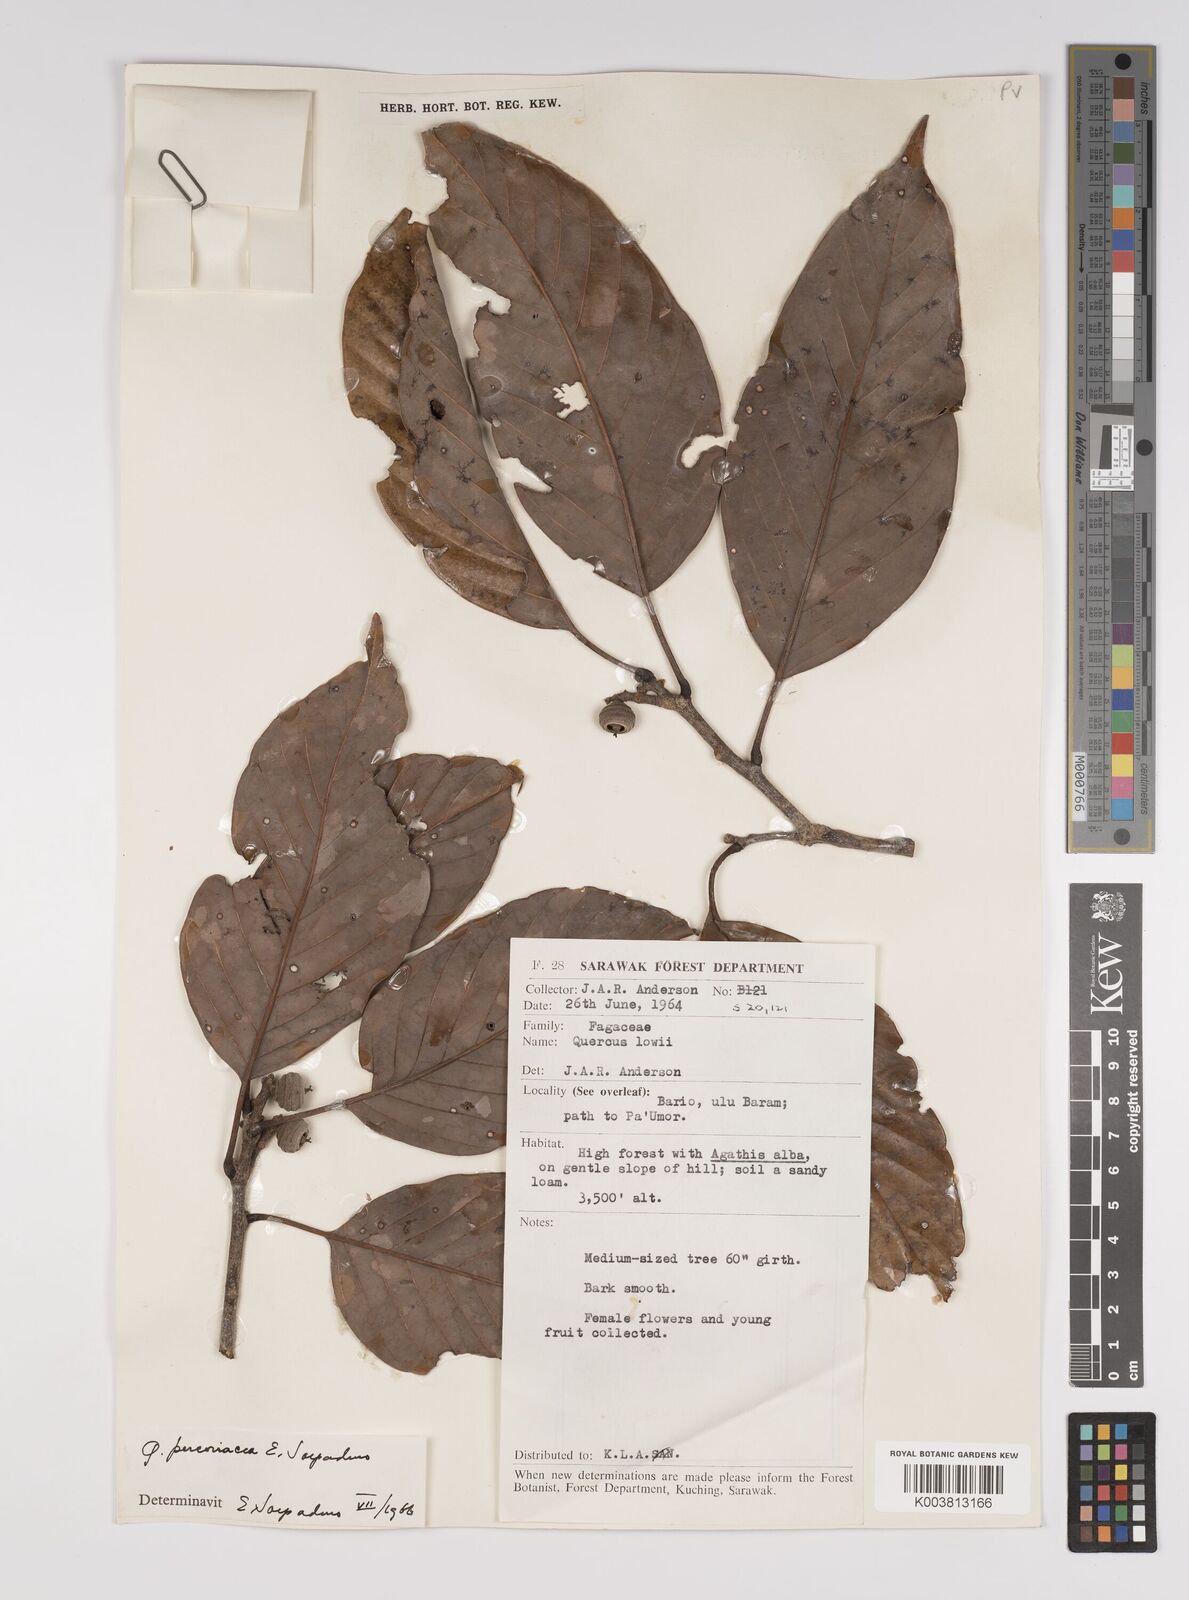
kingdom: Plantae
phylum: Tracheophyta
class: Magnoliopsida
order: Fagales
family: Fagaceae
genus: Quercus
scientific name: Quercus percoriacea
